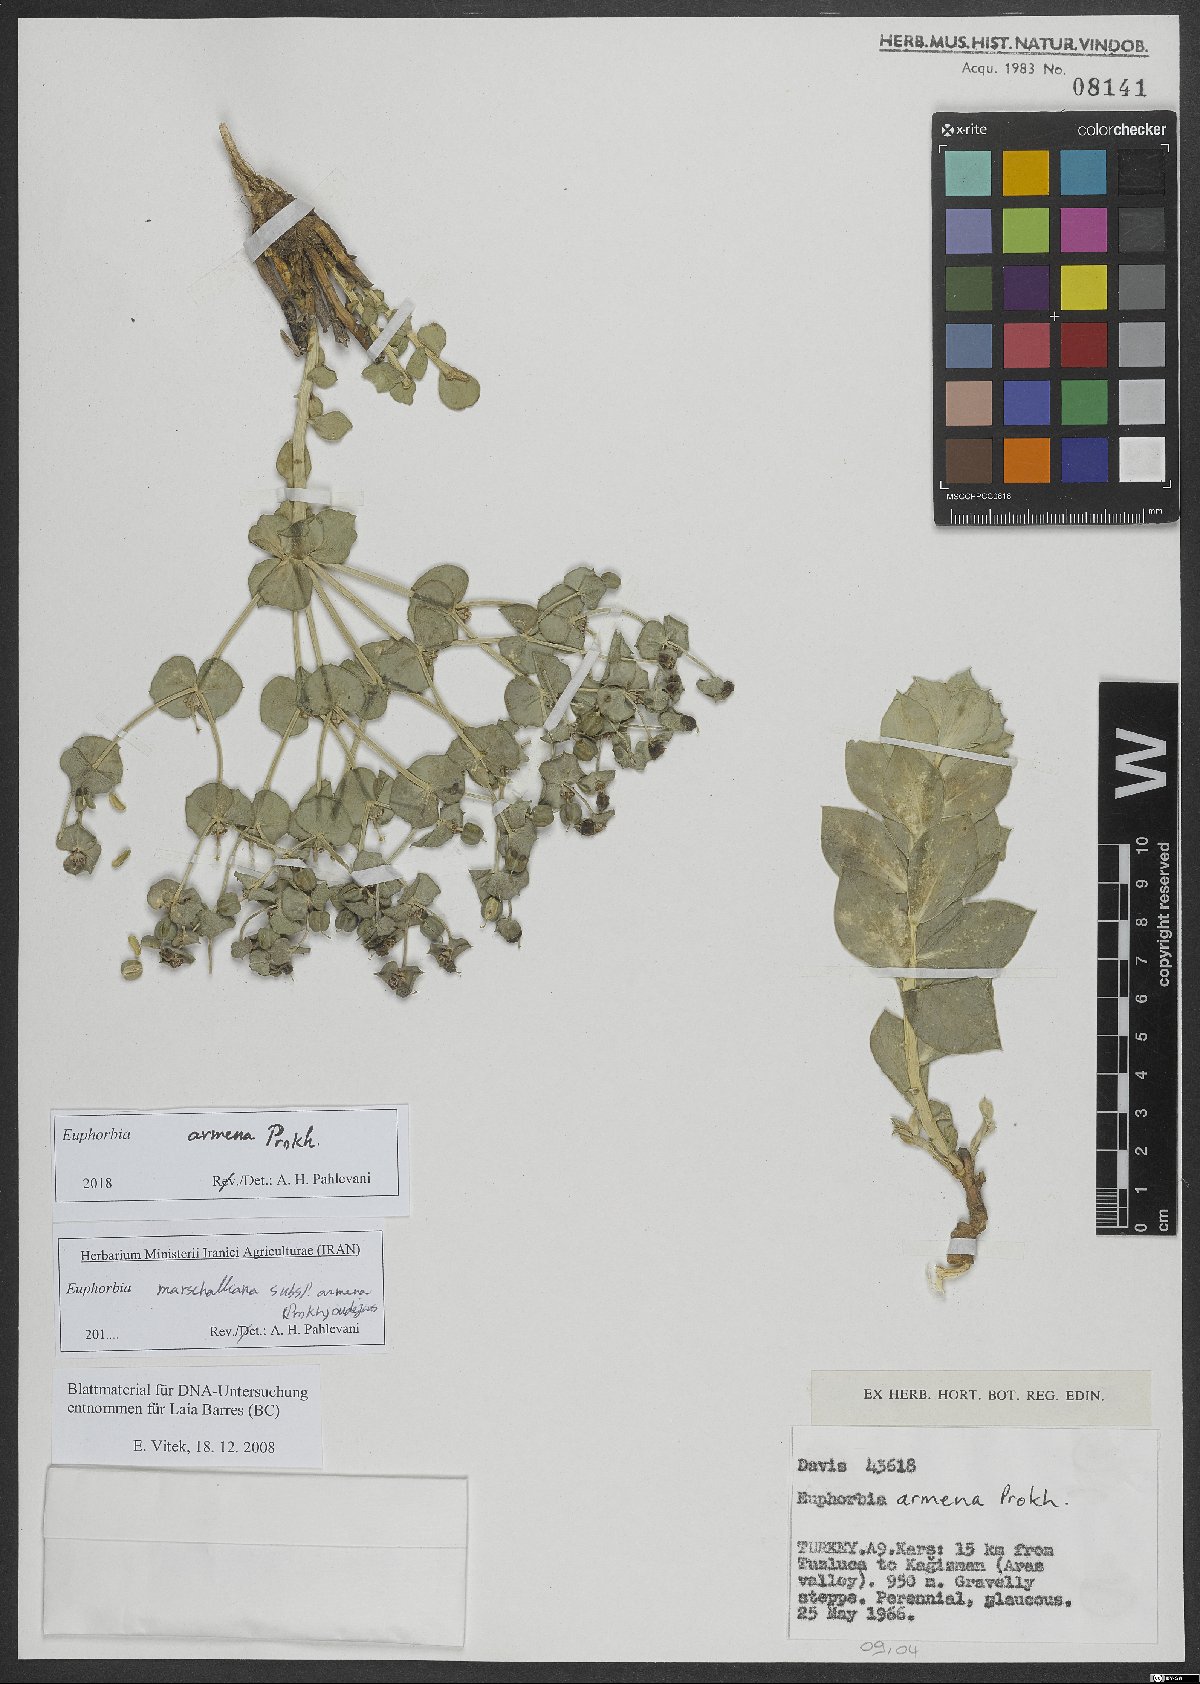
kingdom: Plantae
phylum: Tracheophyta
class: Magnoliopsida
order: Malpighiales
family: Euphorbiaceae
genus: Euphorbia
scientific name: Euphorbia marschalliana
